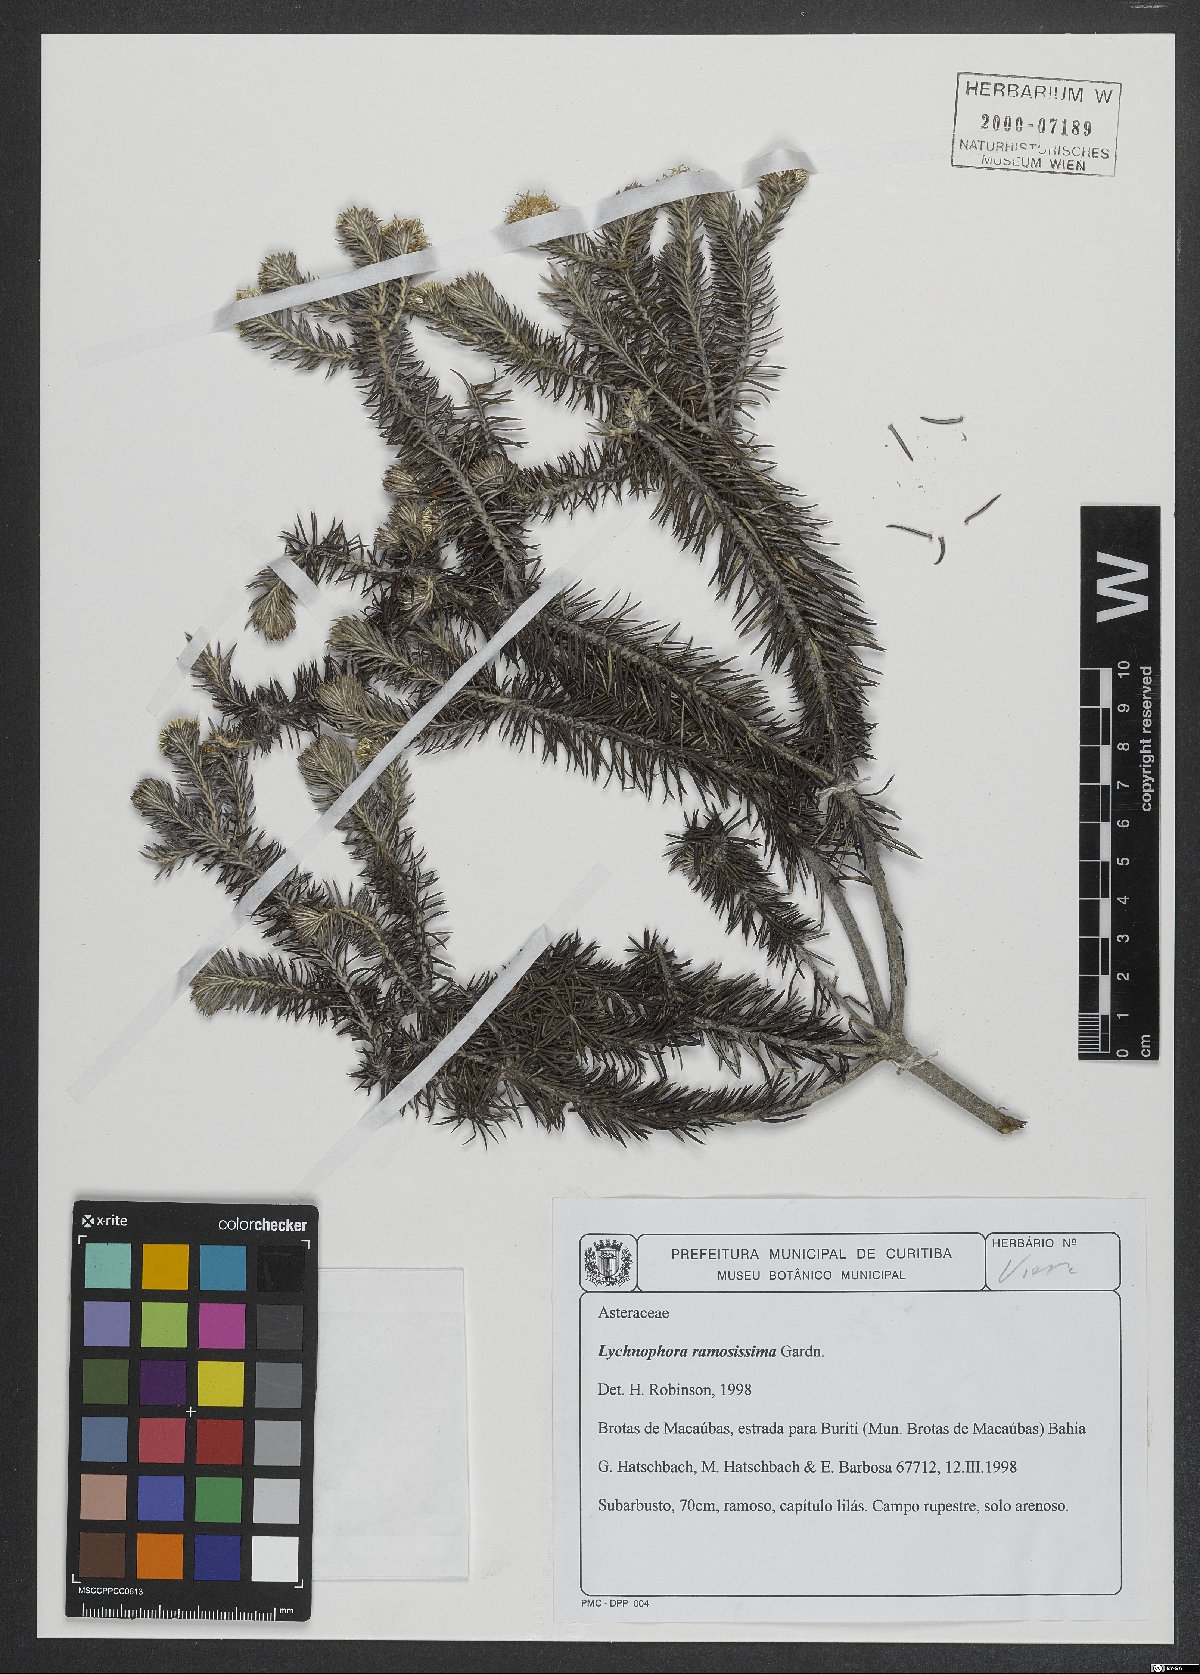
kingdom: Plantae
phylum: Tracheophyta
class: Magnoliopsida
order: Asterales
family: Asteraceae
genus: Lychnophora
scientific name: Lychnophora ramosissima
